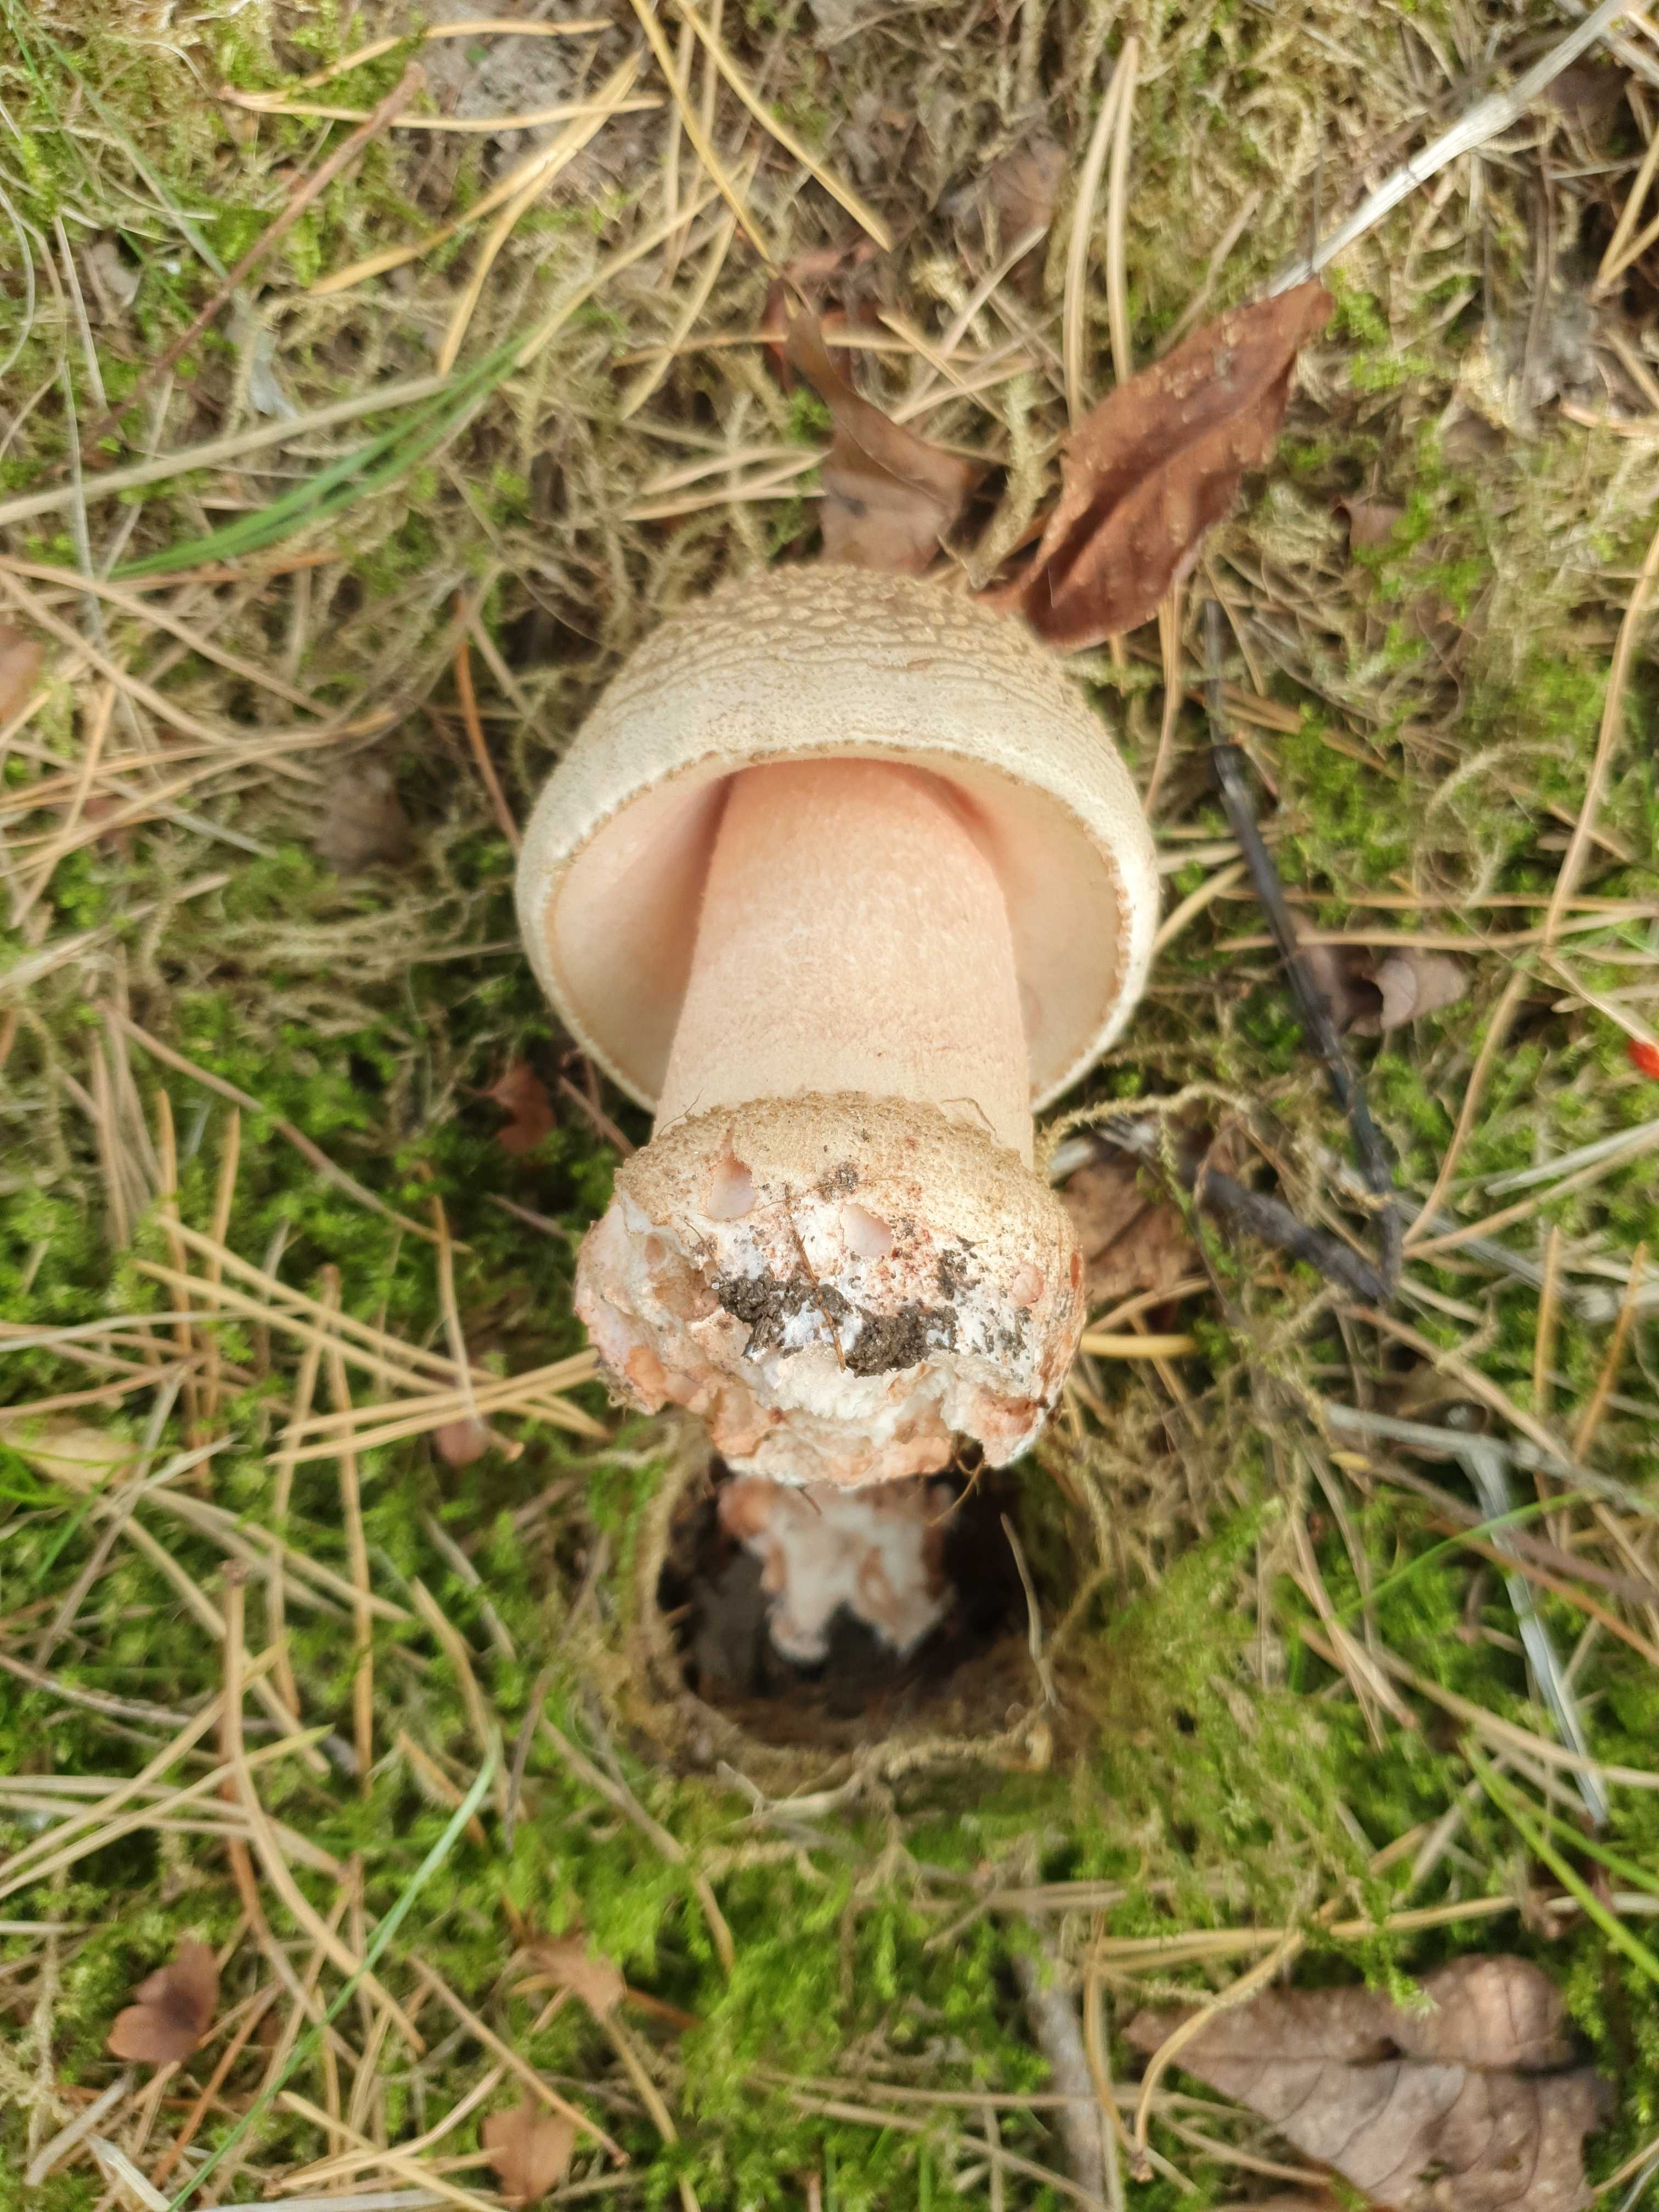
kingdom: Fungi
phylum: Basidiomycota
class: Agaricomycetes
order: Agaricales
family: Amanitaceae
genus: Amanita
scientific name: Amanita rubescens
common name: rødmende fluesvamp
